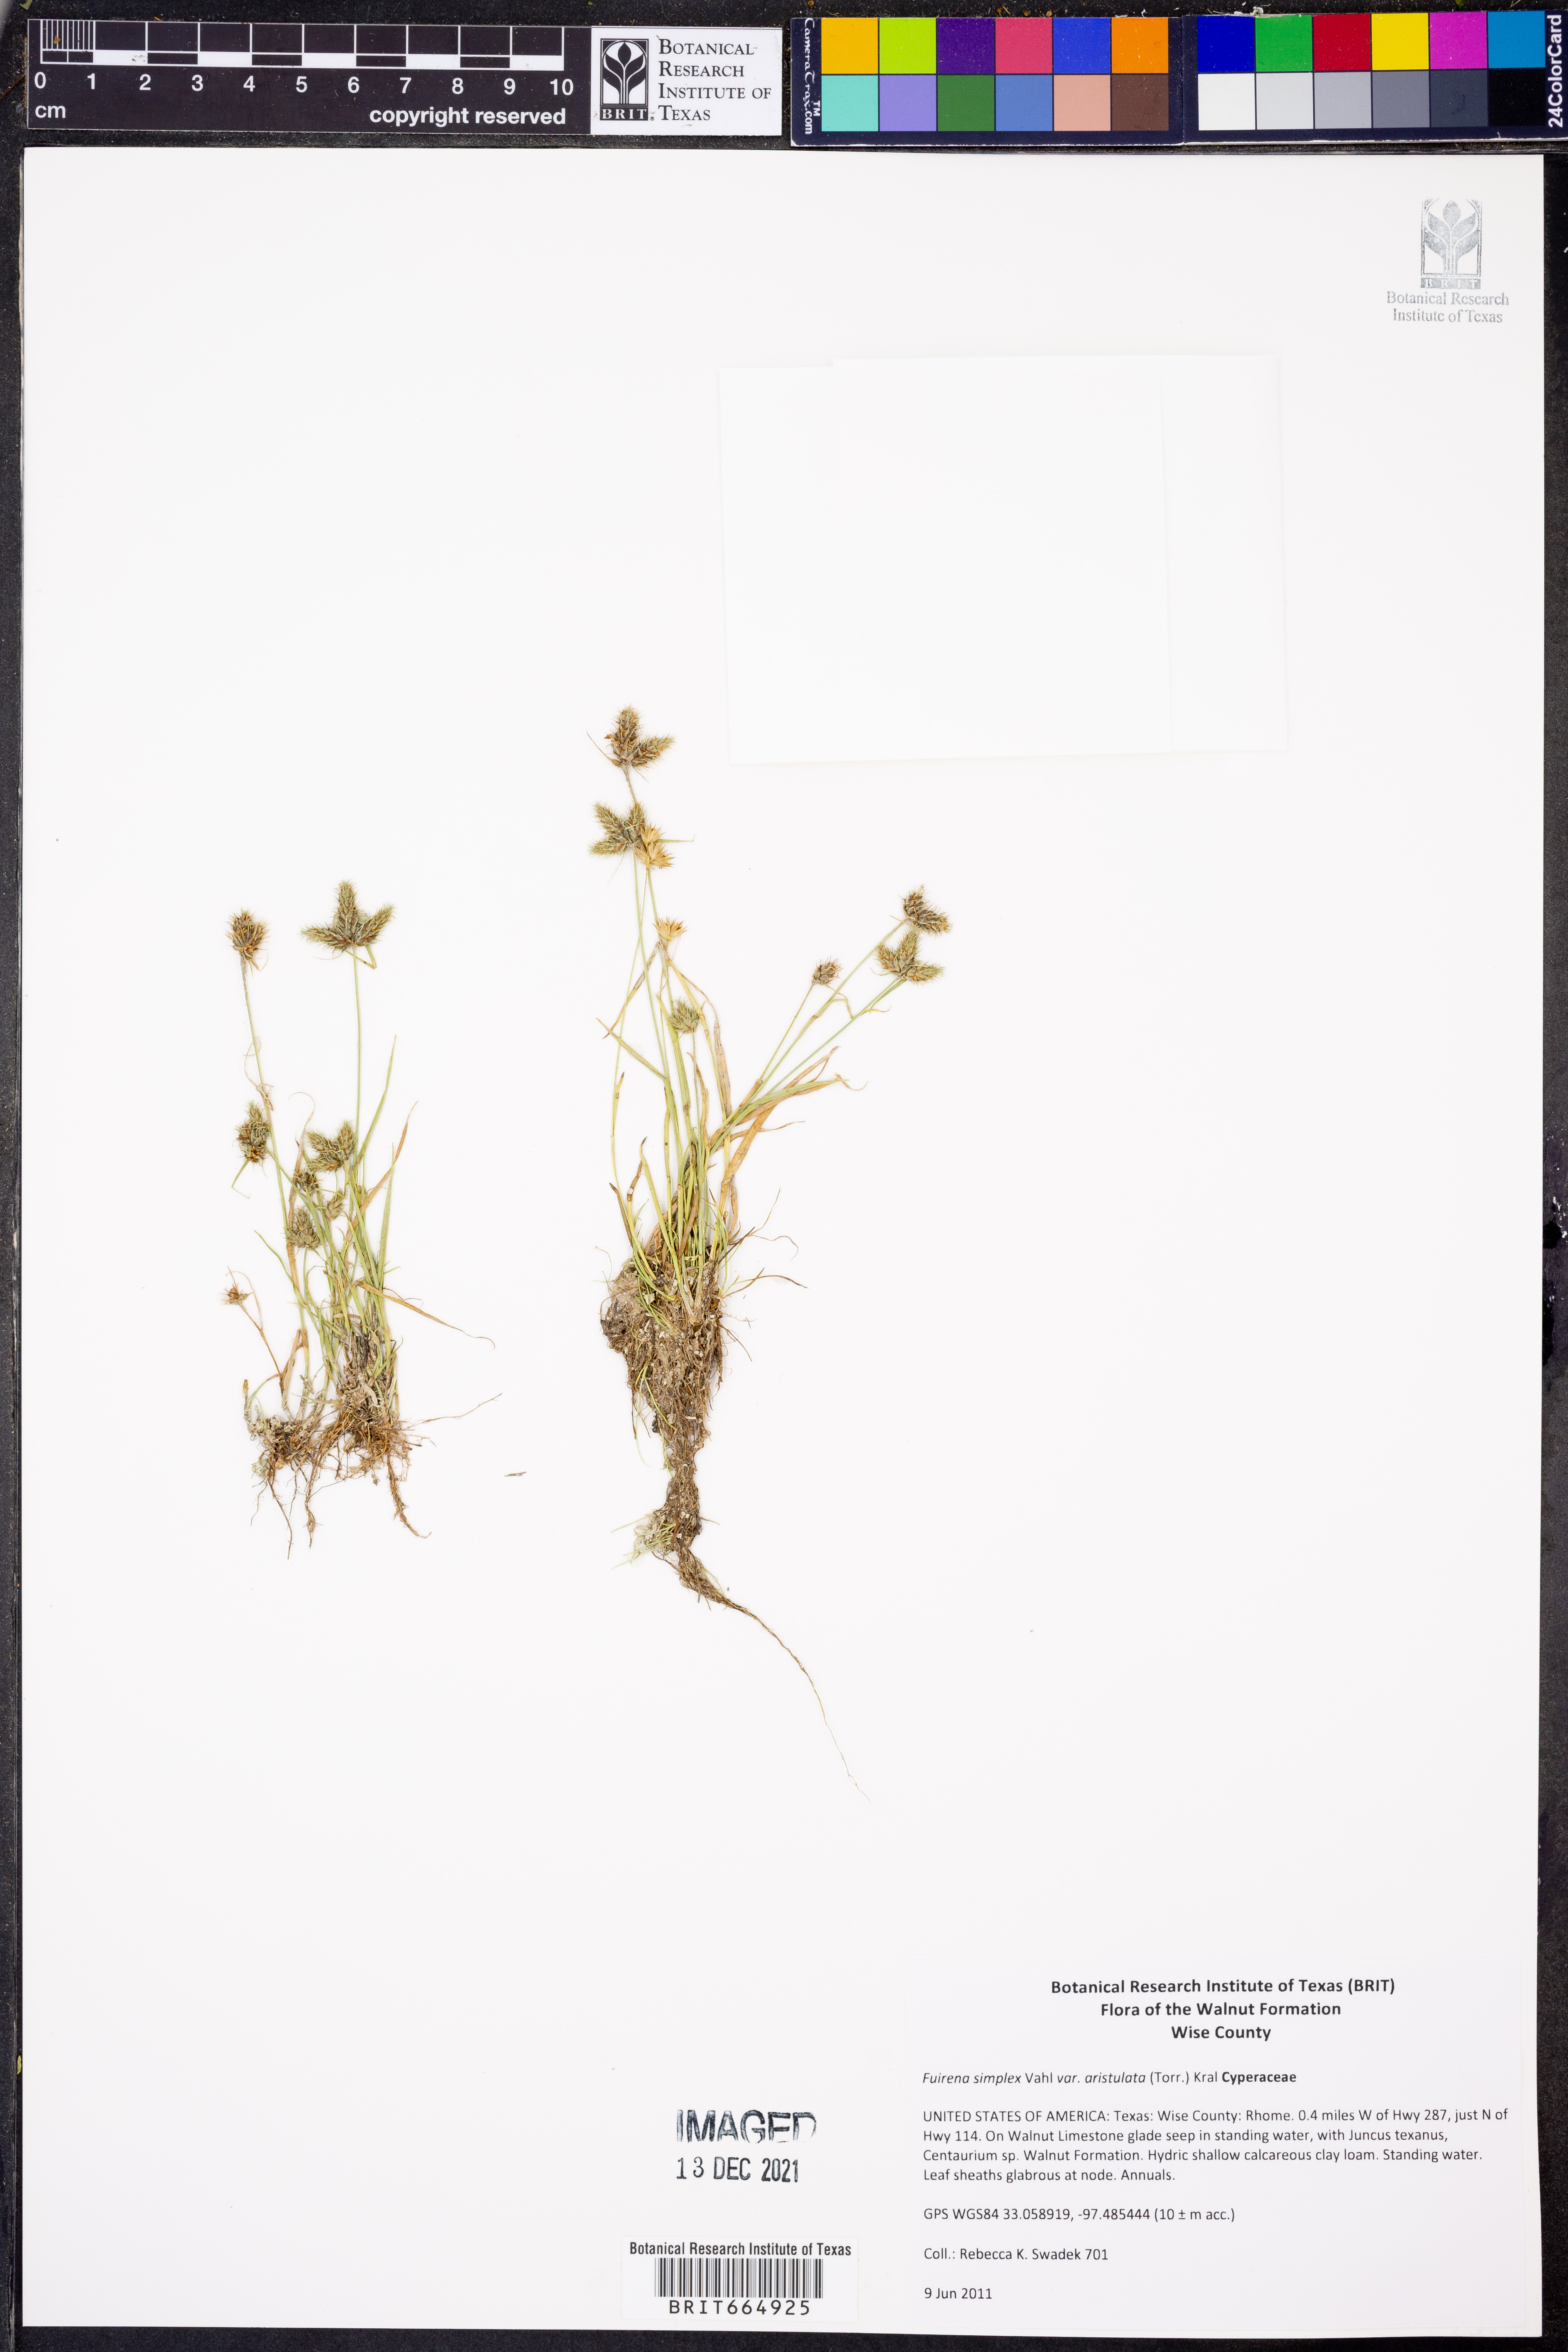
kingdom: Plantae
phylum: Tracheophyta
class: Liliopsida
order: Poales
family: Cyperaceae
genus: Fuirena
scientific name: Fuirena simplex
